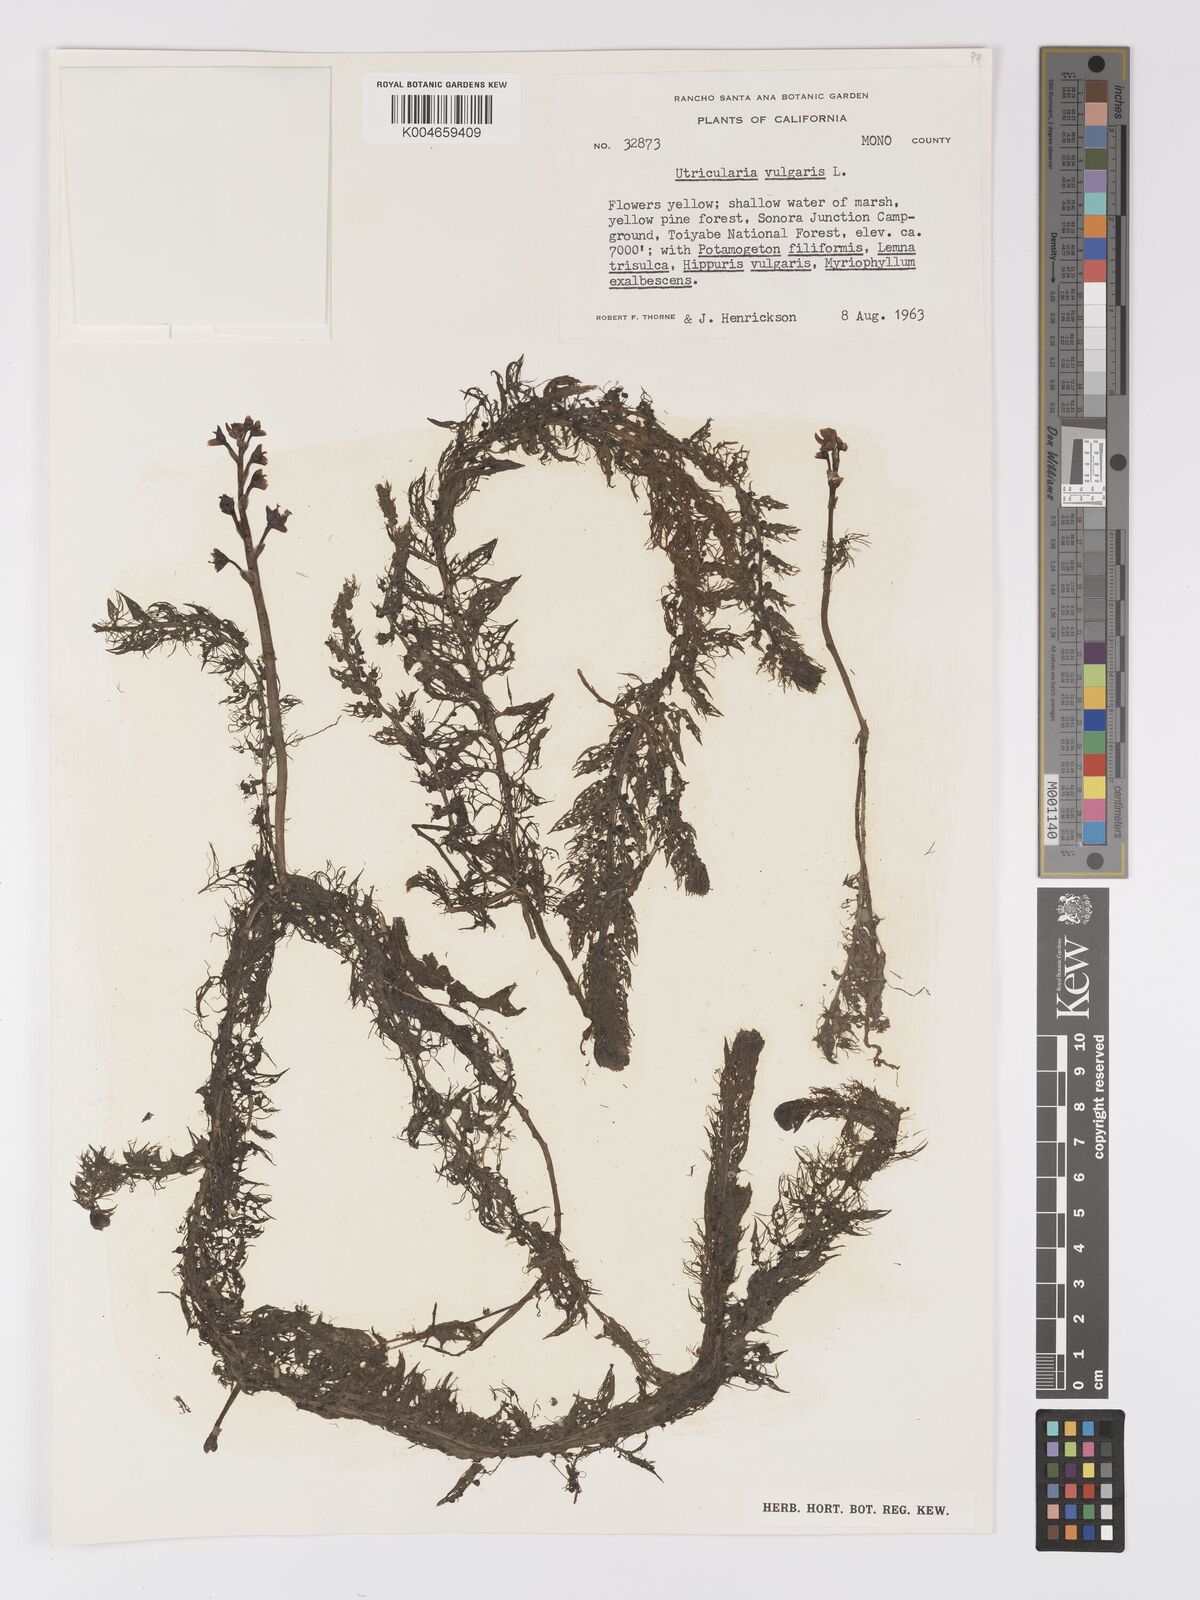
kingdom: Plantae
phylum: Tracheophyta
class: Magnoliopsida
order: Lamiales
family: Lentibulariaceae
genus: Utricularia
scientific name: Utricularia macrorhiza
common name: Common bladderwort
